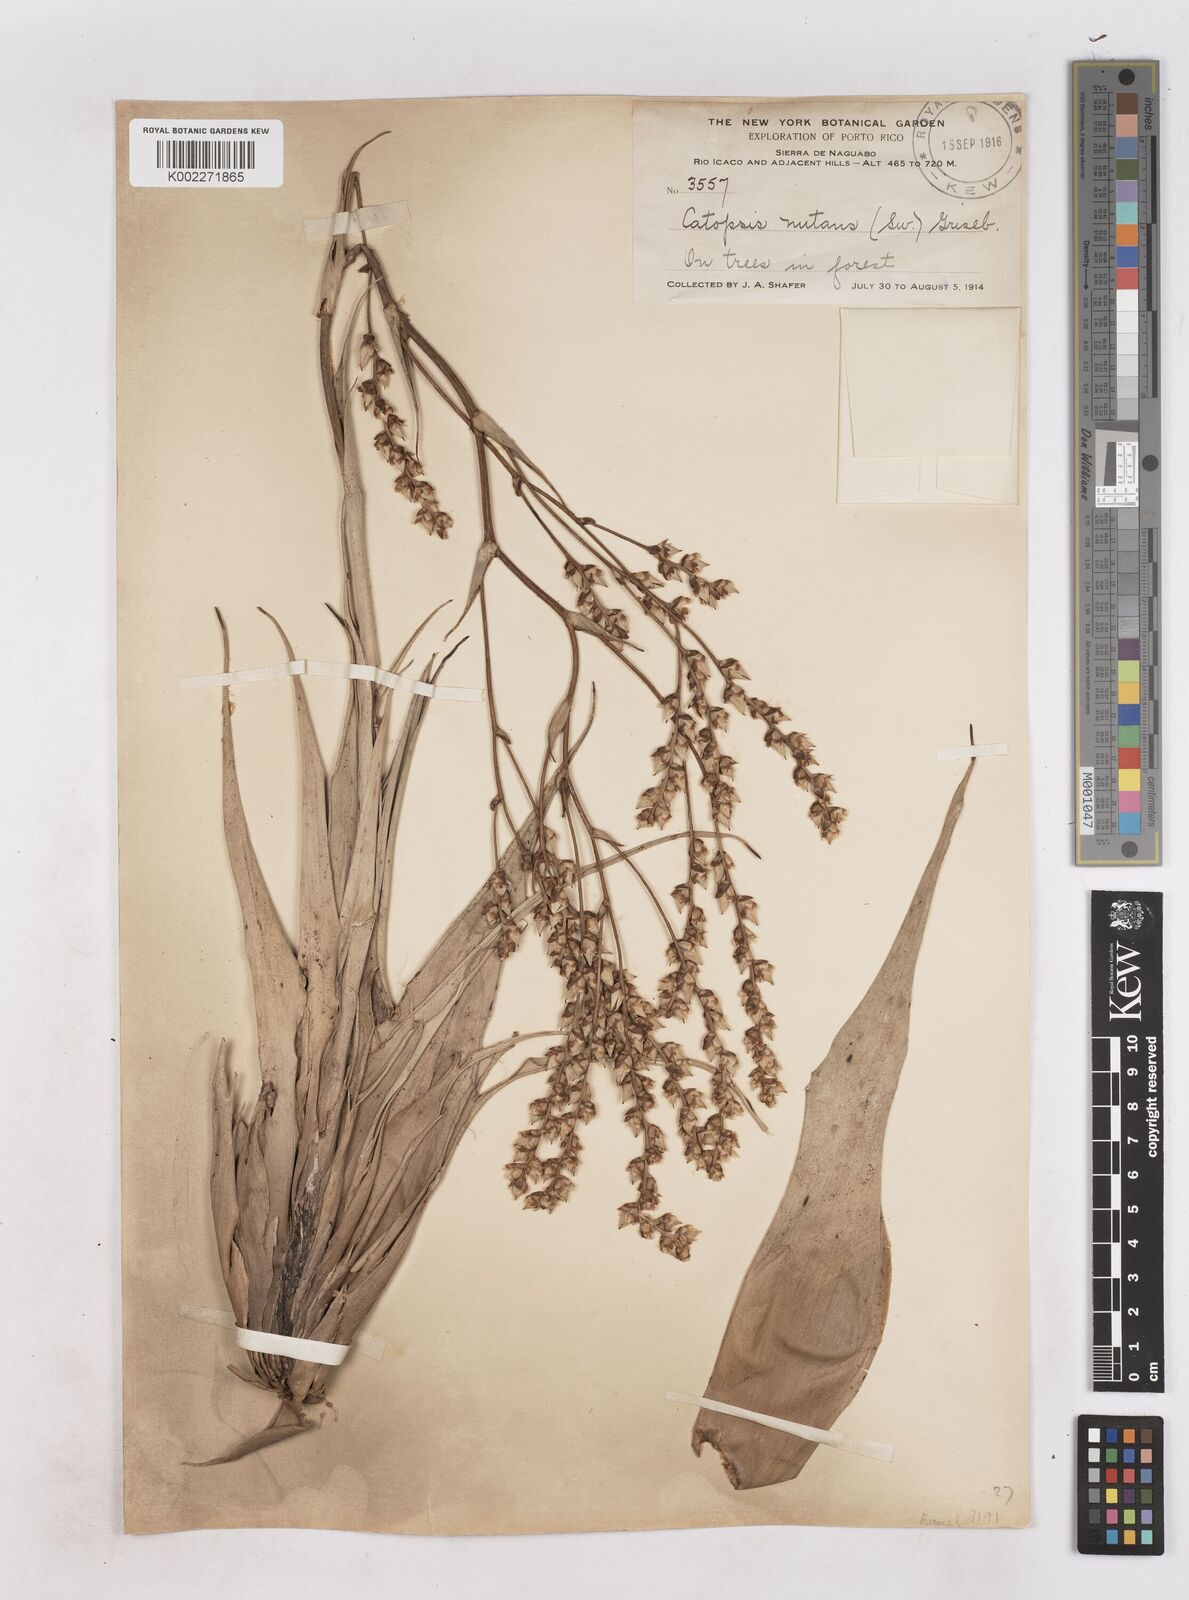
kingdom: Plantae
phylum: Tracheophyta
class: Liliopsida
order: Poales
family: Bromeliaceae
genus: Catopsis
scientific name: Catopsis nutans
